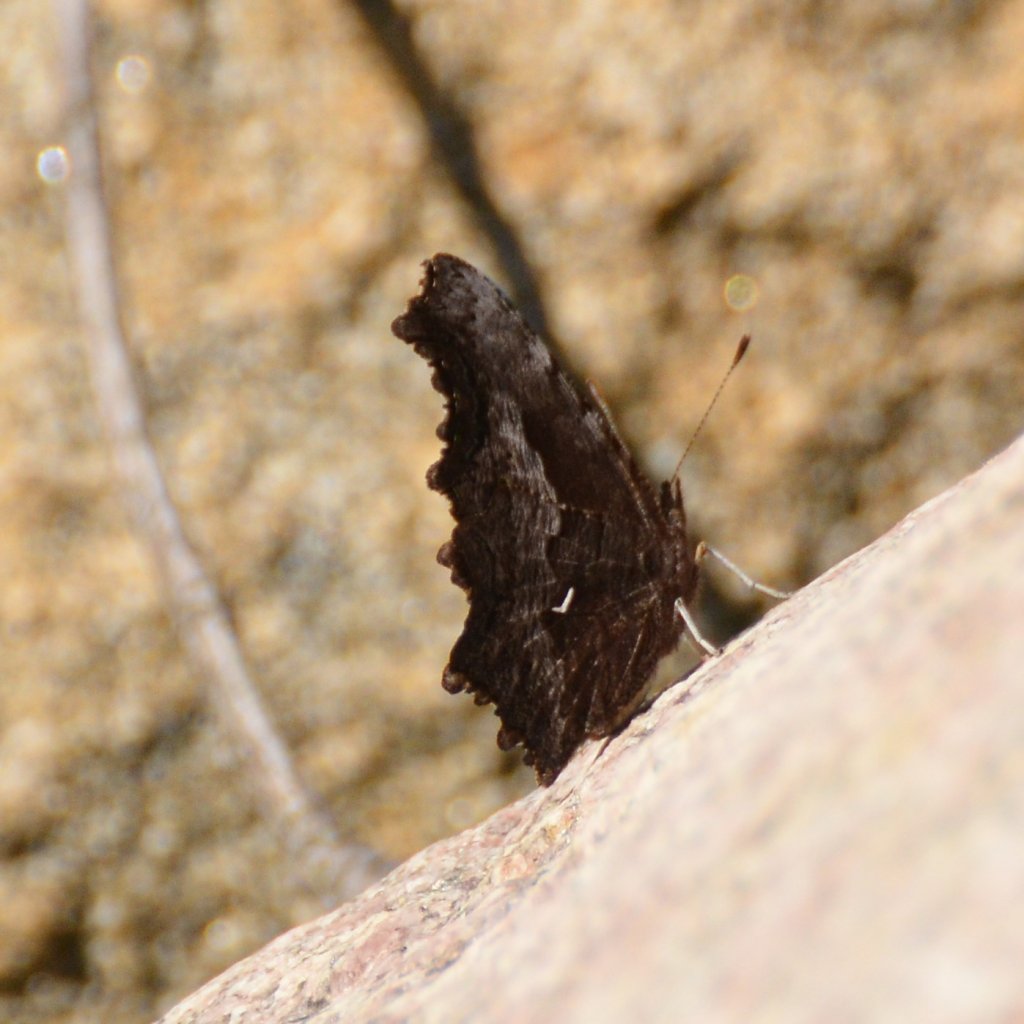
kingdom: Animalia
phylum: Arthropoda
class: Insecta
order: Lepidoptera
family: Nymphalidae
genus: Polygonia
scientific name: Polygonia gracilis
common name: Hoary Comma
